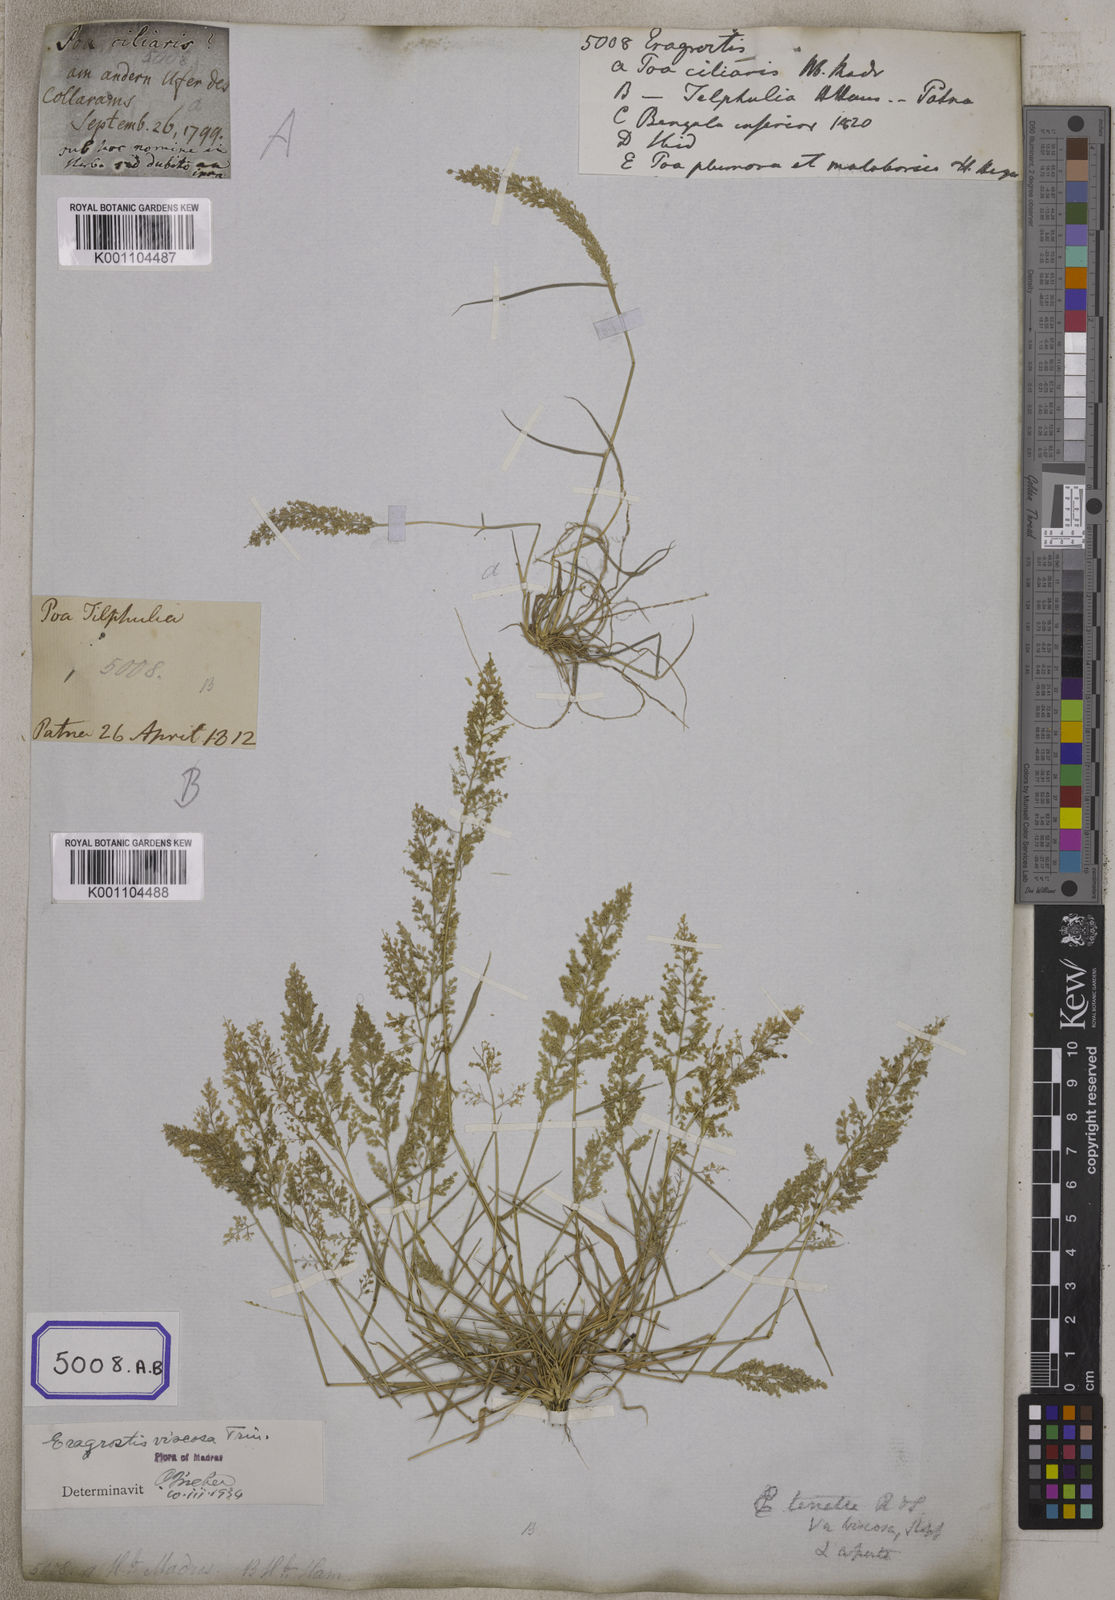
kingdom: Plantae
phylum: Tracheophyta
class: Liliopsida
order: Poales
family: Poaceae
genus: Eragrostis
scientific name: Eragrostis
